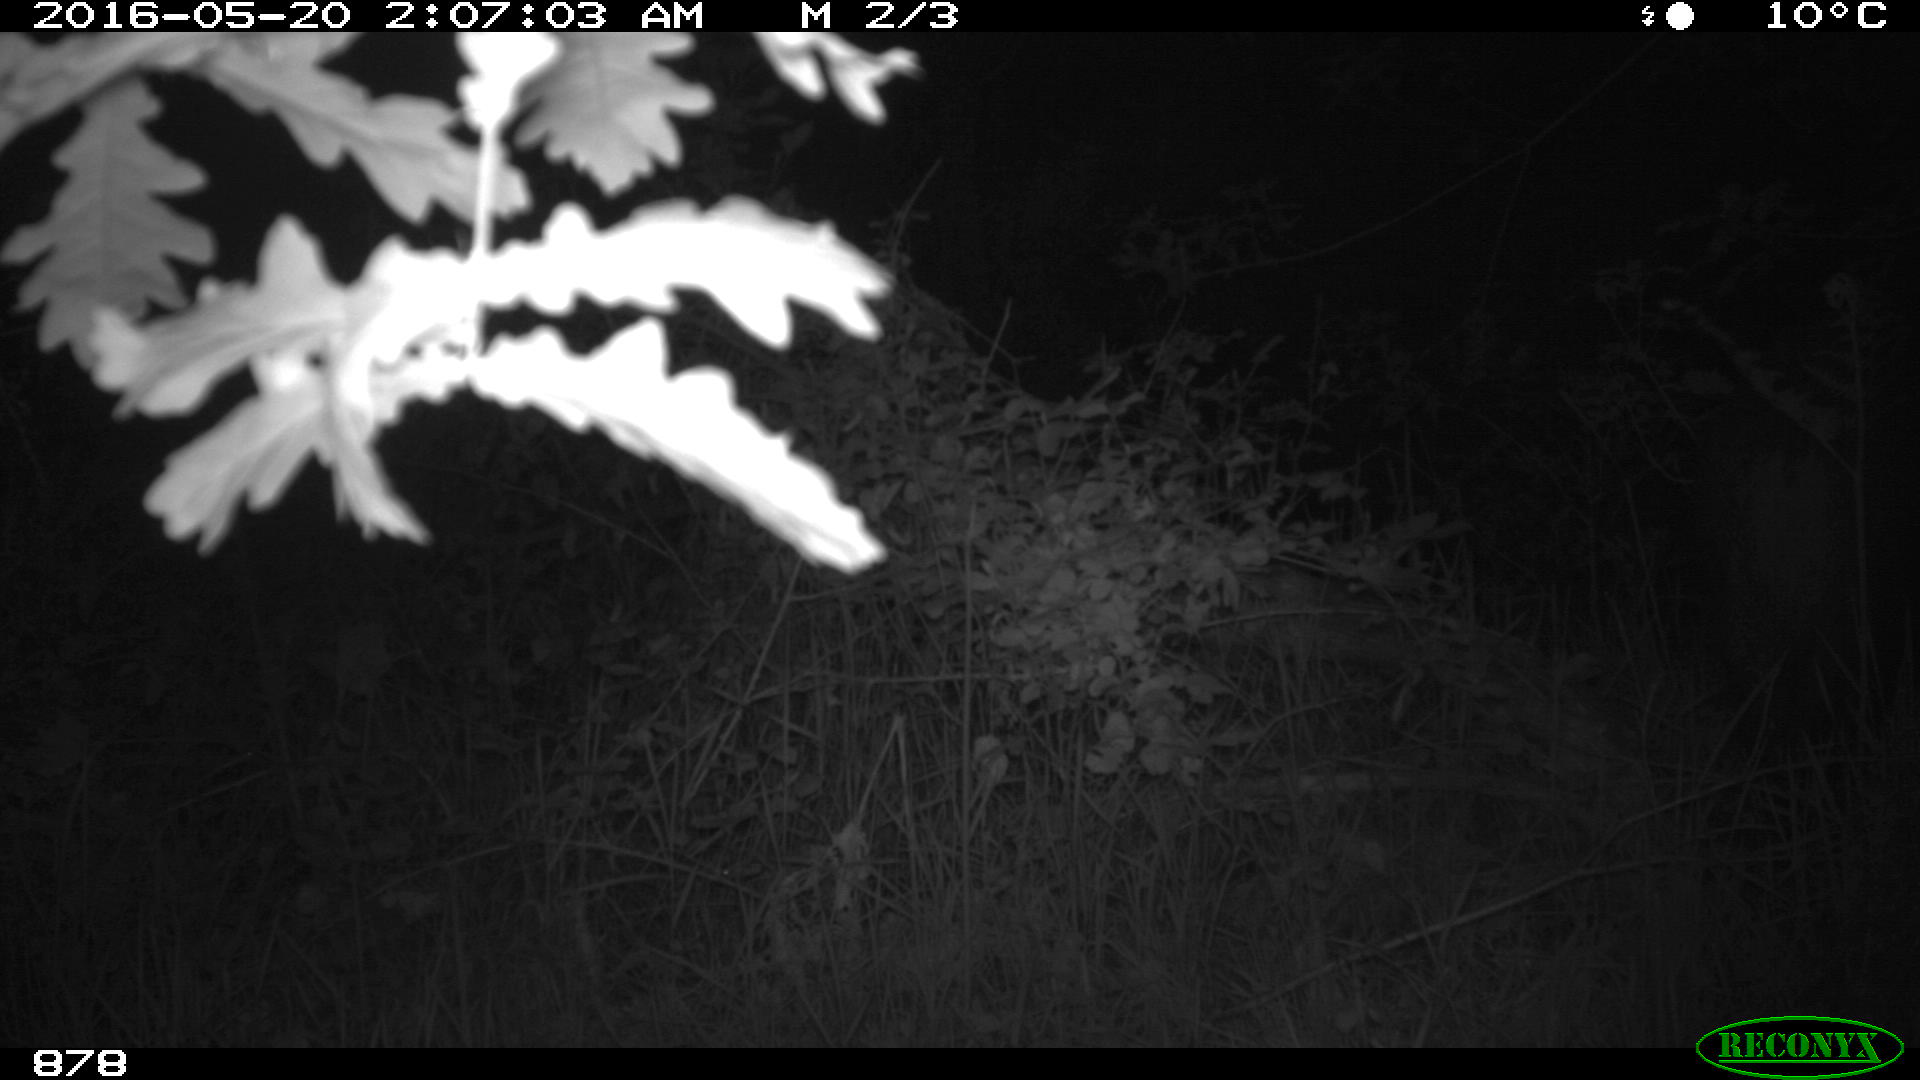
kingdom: Animalia
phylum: Chordata
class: Mammalia
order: Artiodactyla
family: Suidae
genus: Sus
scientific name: Sus scrofa
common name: Wild boar
